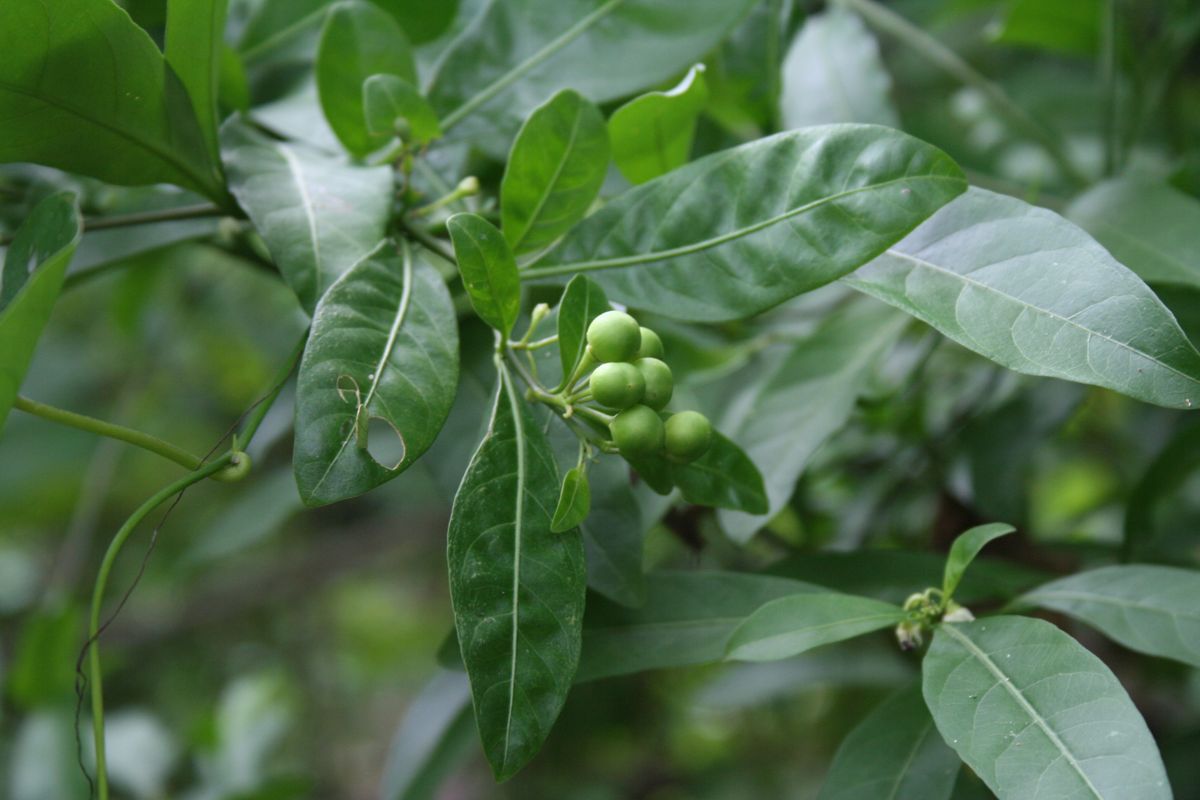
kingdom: Plantae
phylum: Tracheophyta
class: Magnoliopsida
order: Solanales
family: Solanaceae
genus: Solanum
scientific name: Solanum diphyllum
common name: Twoleaf nightshade
